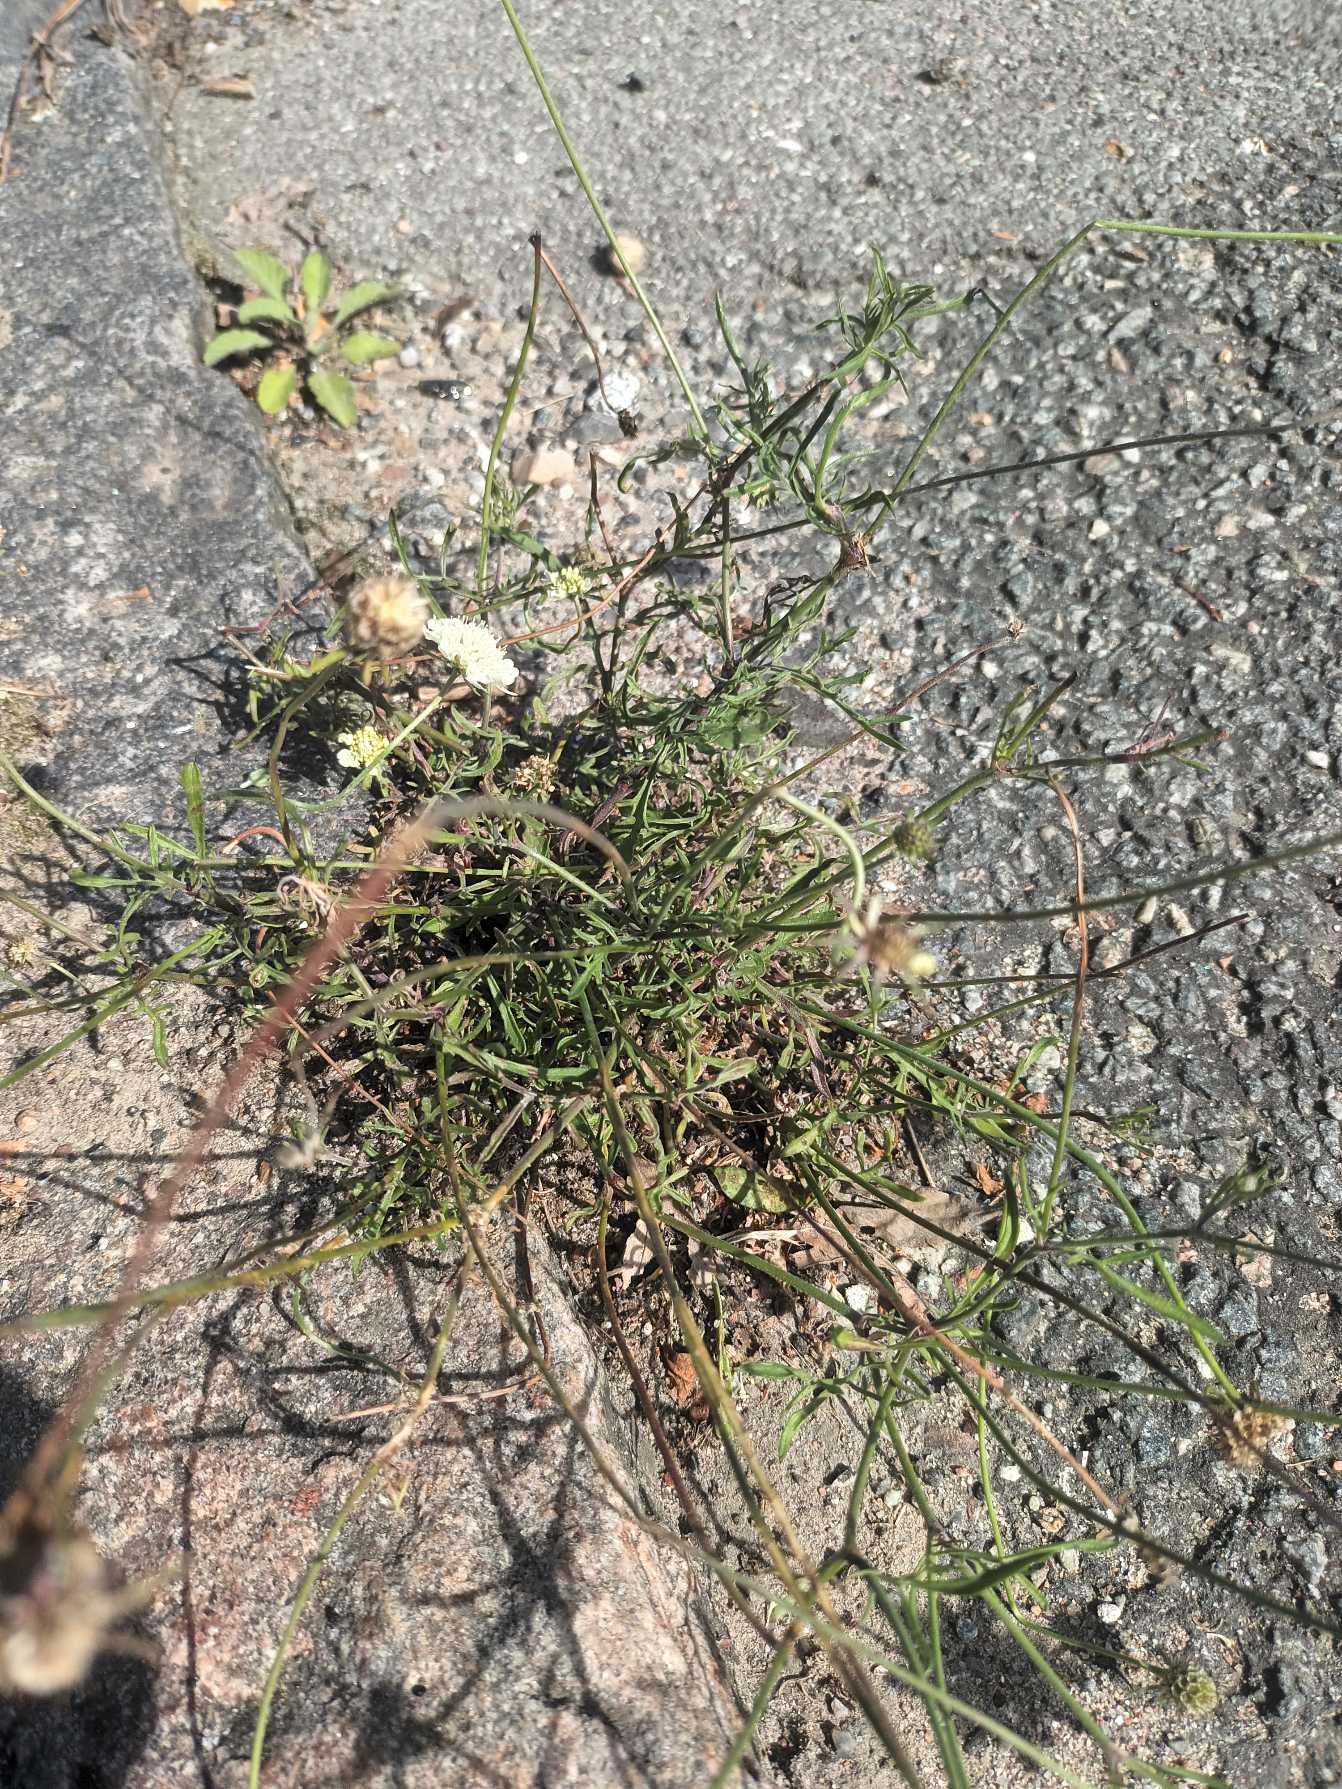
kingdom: Plantae
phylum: Tracheophyta
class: Magnoliopsida
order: Dipsacales
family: Caprifoliaceae
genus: Scabiosa
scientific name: Scabiosa ochroleuca
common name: Gul skabiose
